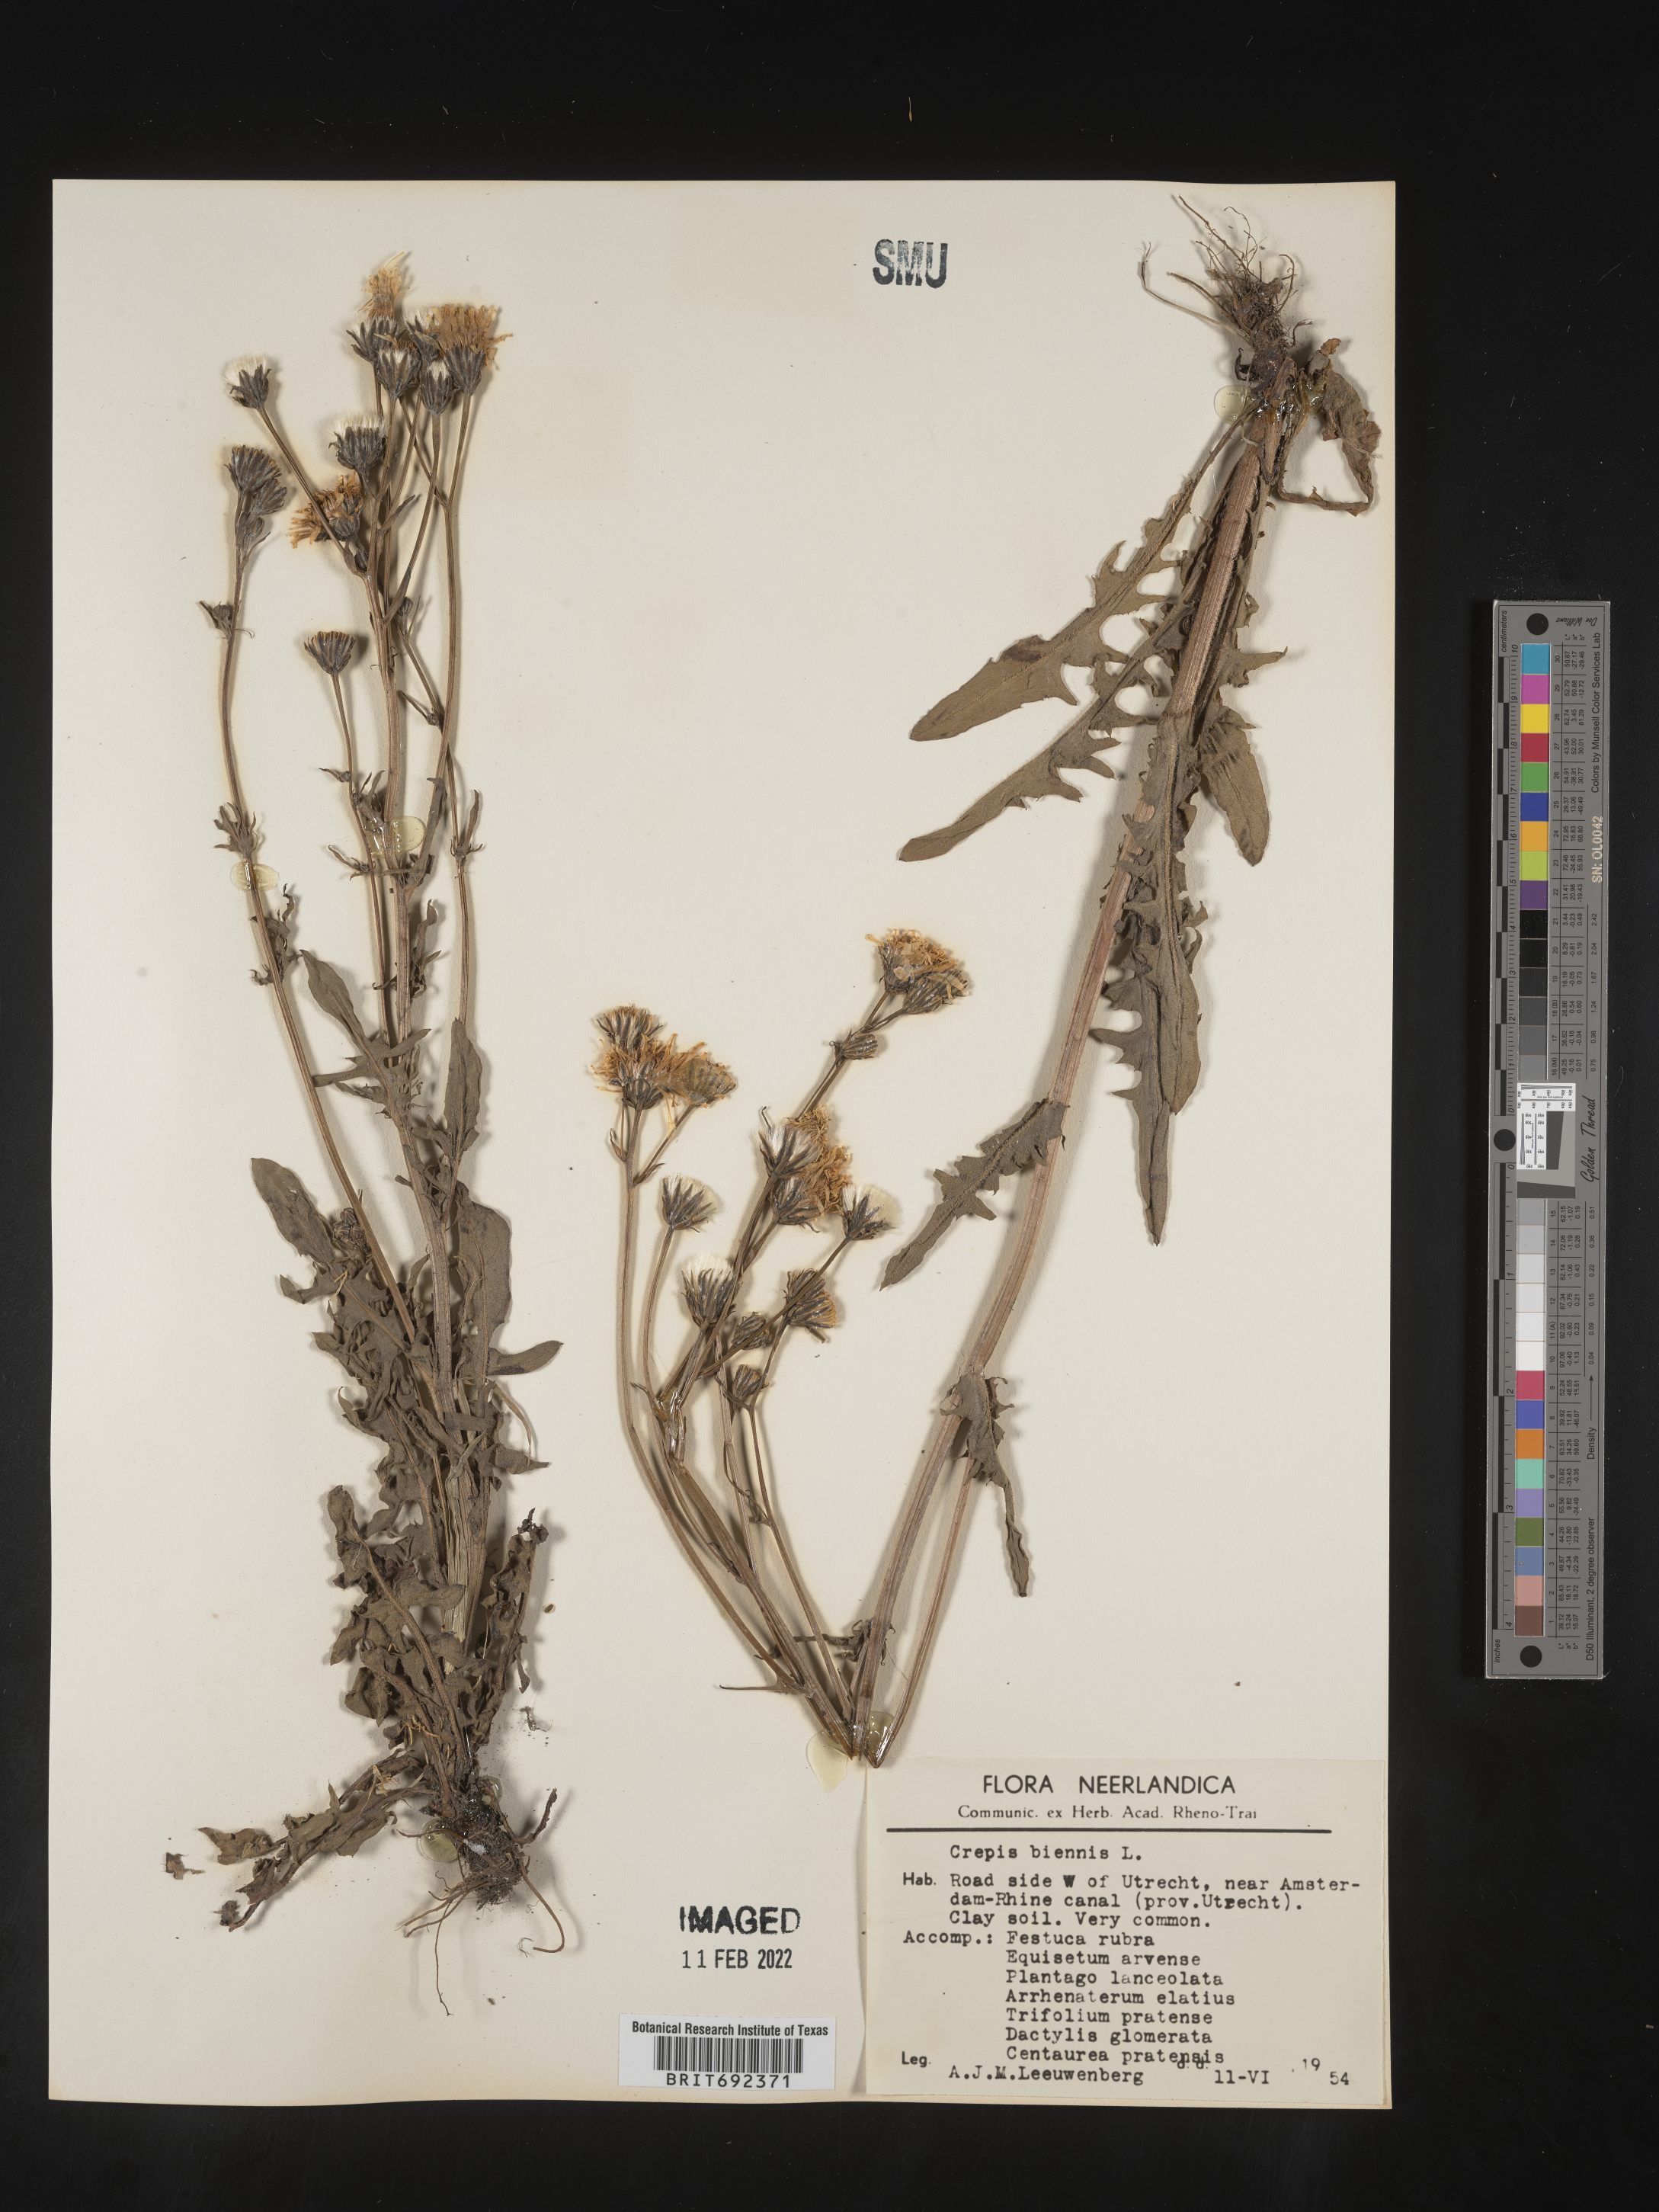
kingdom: Plantae
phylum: Tracheophyta
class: Magnoliopsida
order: Asterales
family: Asteraceae
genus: Crepis
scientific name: Crepis
